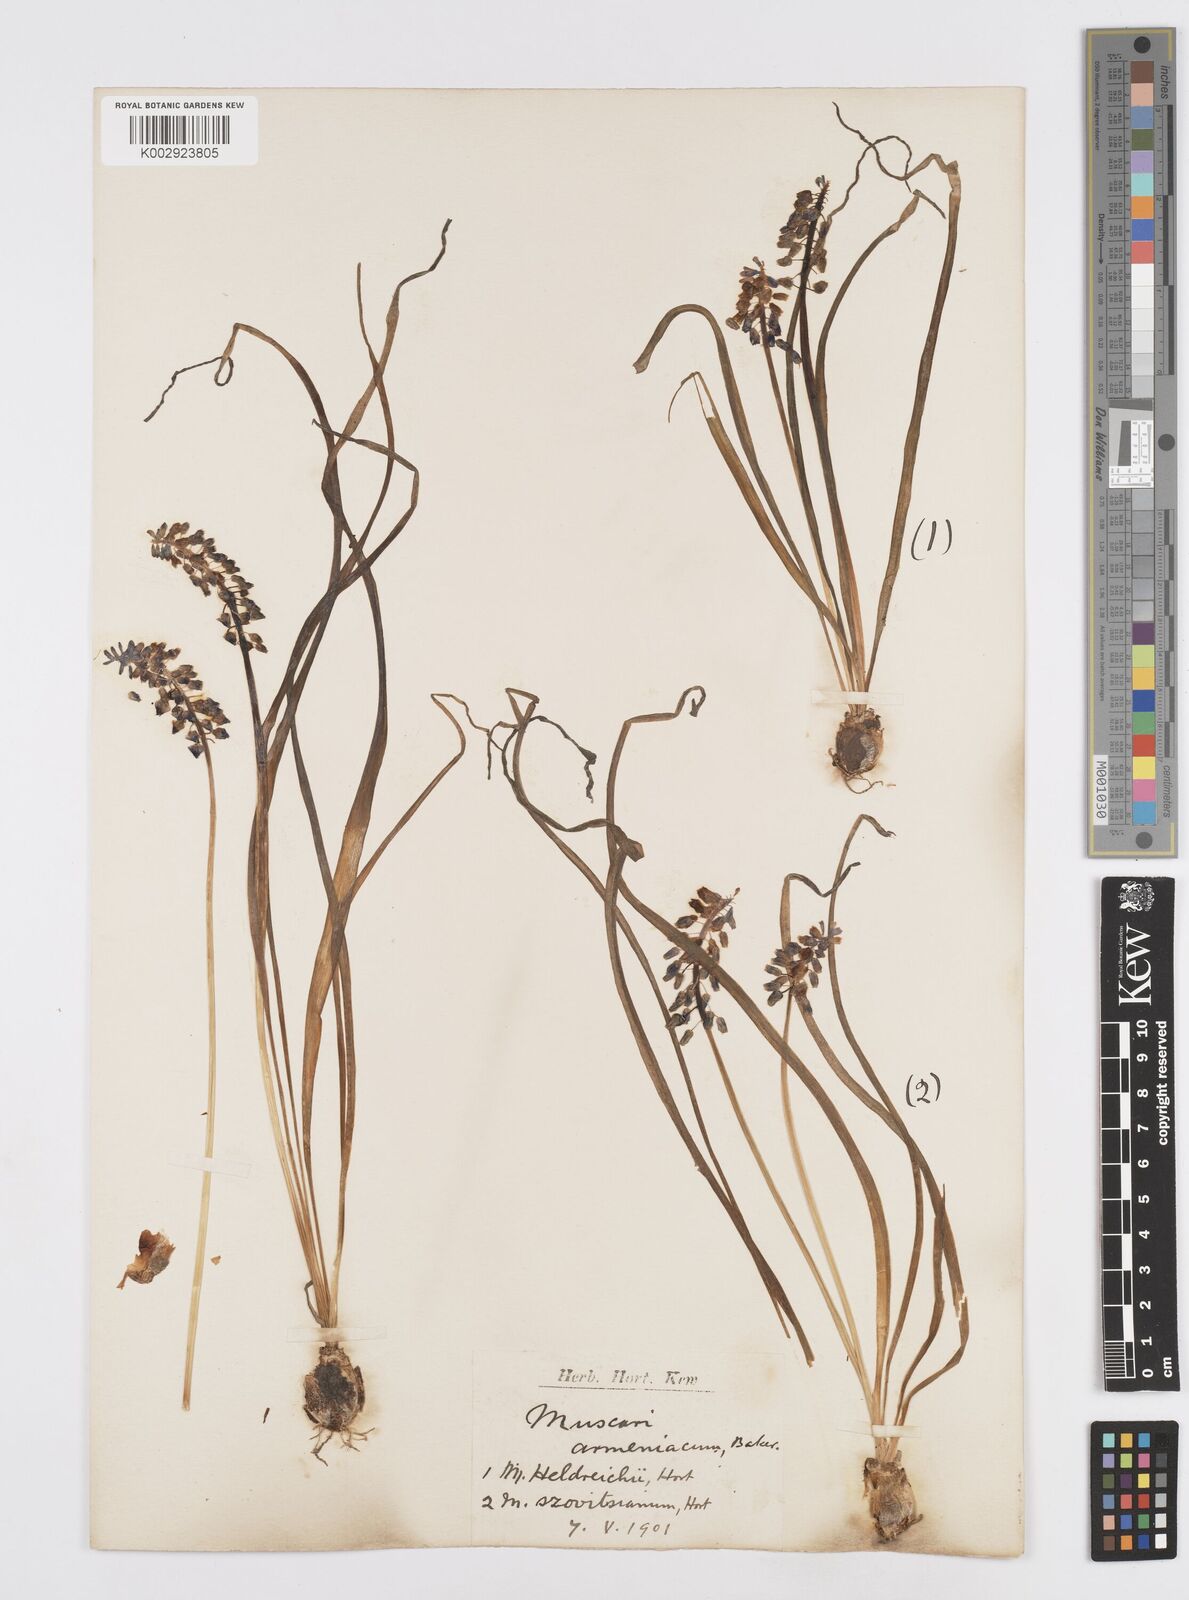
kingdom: Plantae
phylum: Tracheophyta
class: Liliopsida
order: Asparagales
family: Asparagaceae
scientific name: Asparagaceae
